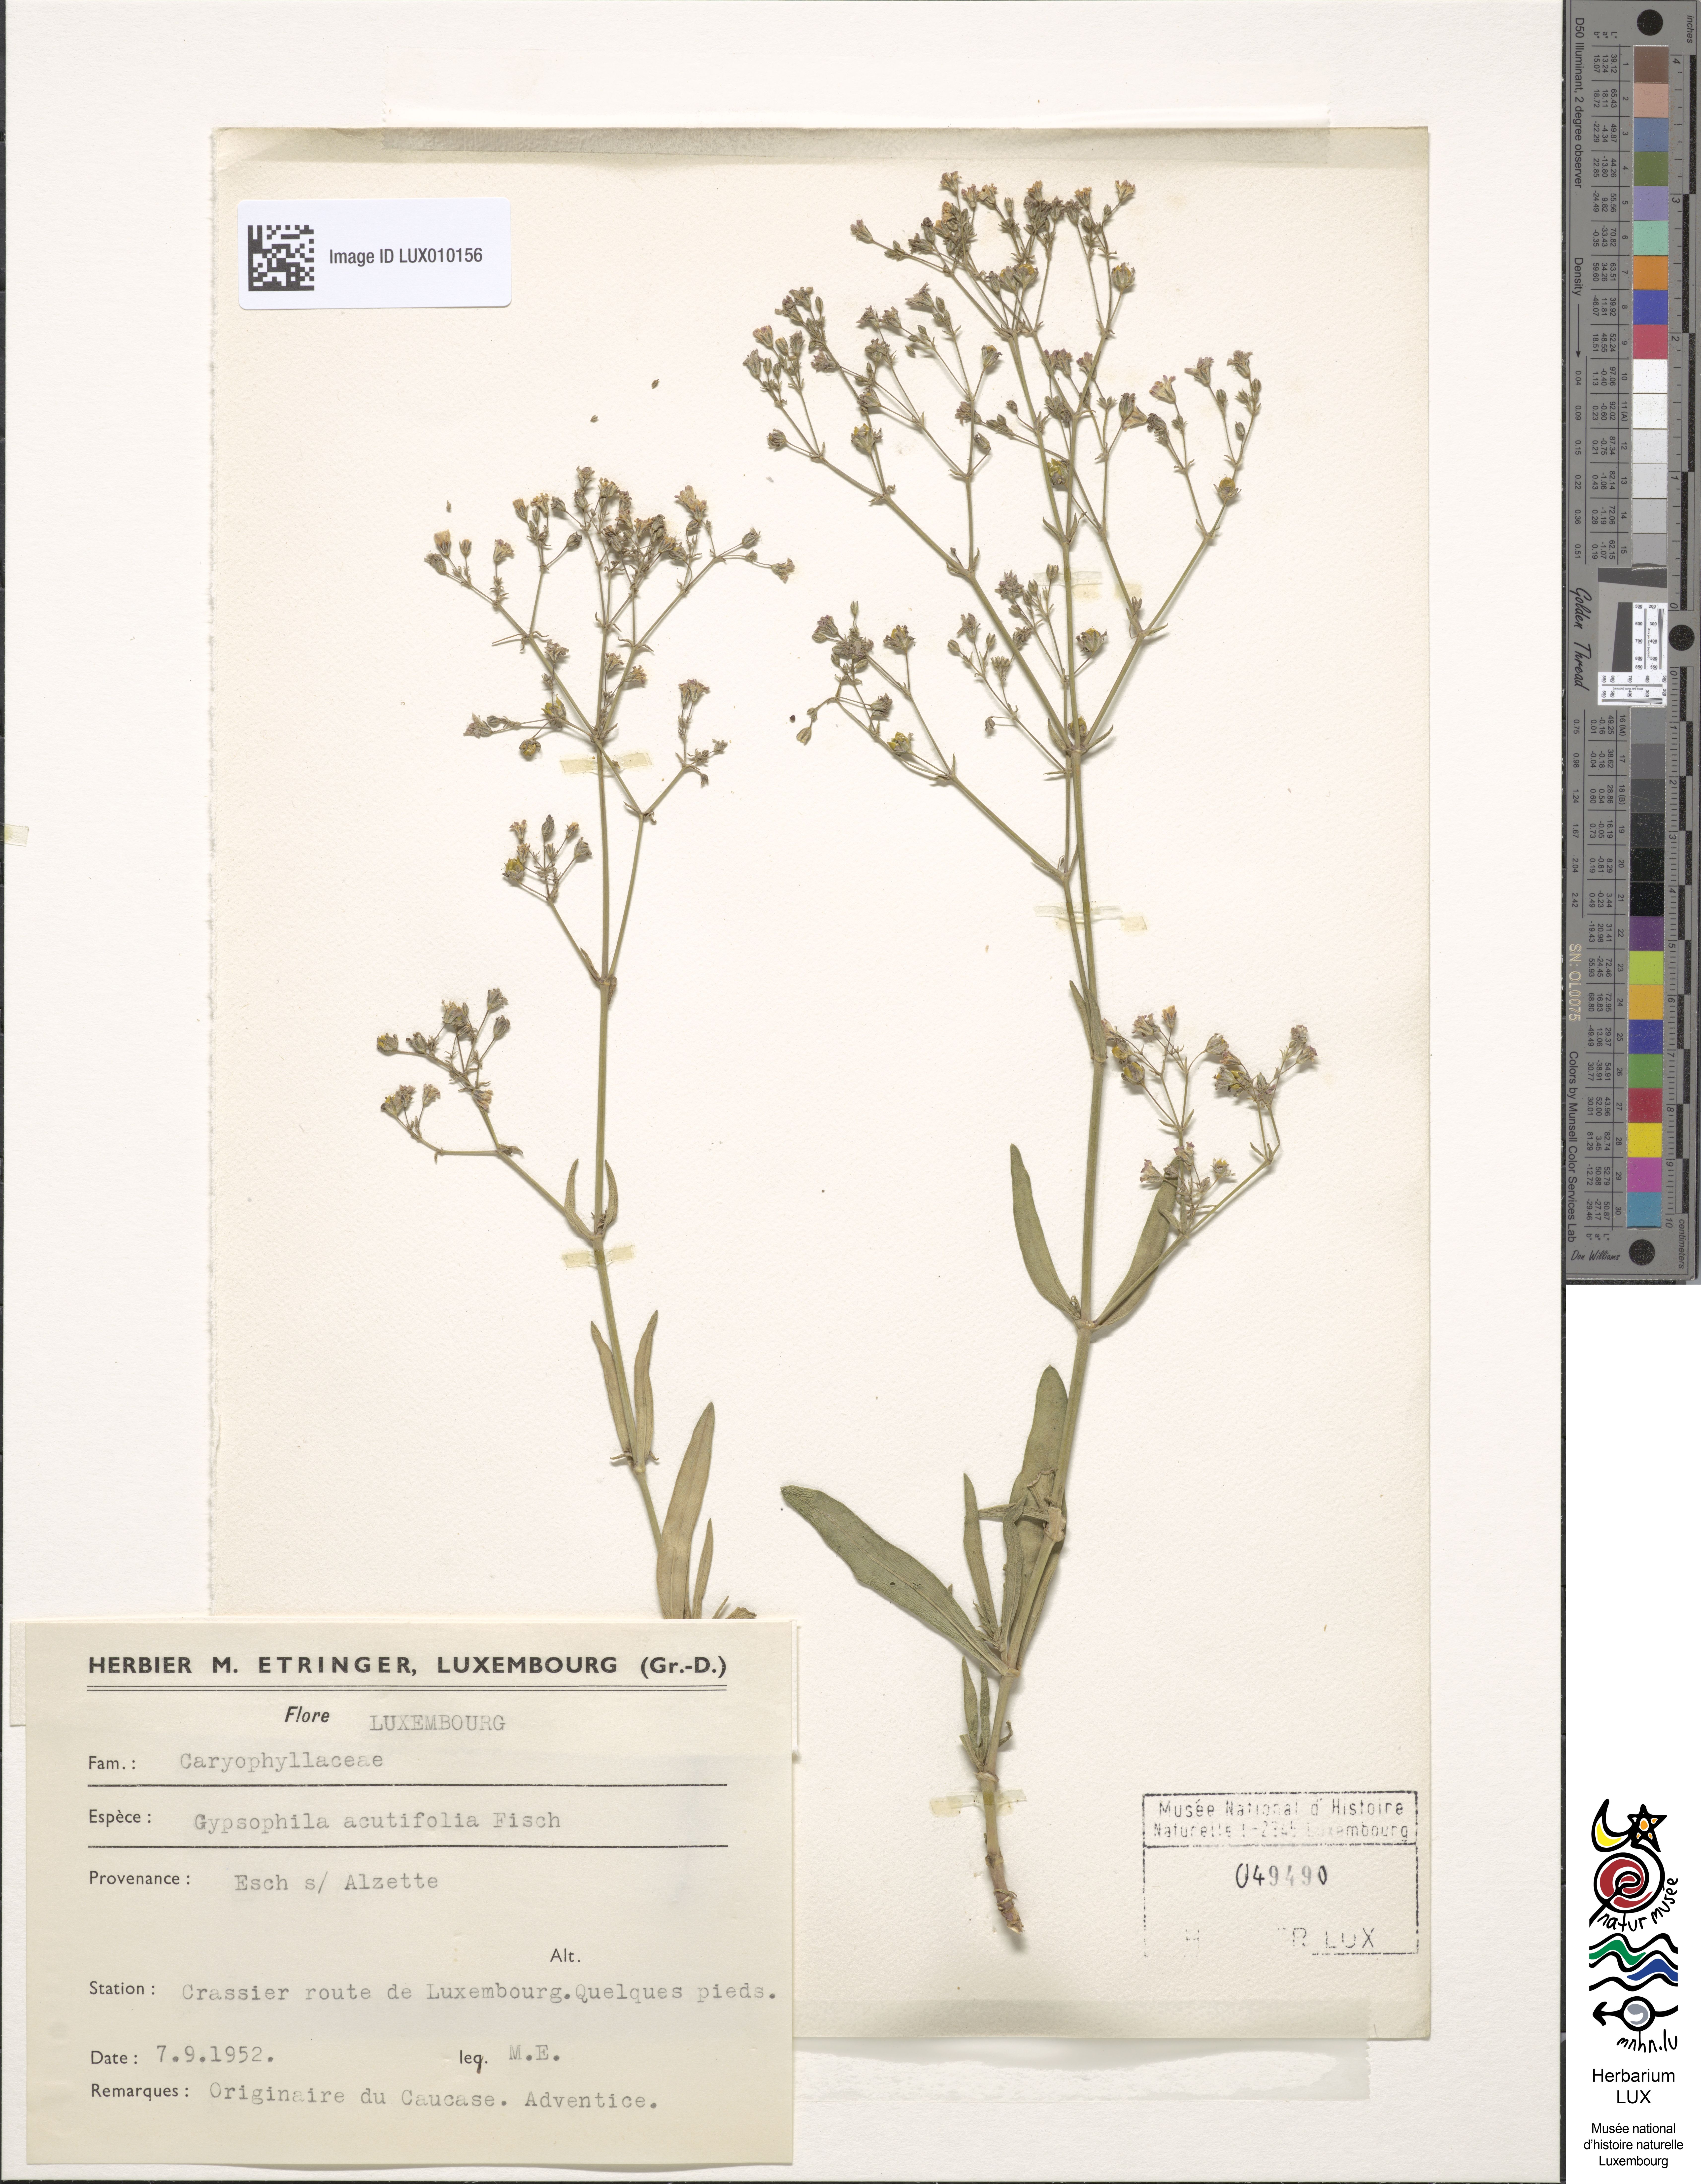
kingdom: Plantae
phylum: Tracheophyta
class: Magnoliopsida
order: Caryophyllales
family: Caryophyllaceae
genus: Gypsophila
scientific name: Gypsophila acutifolia
